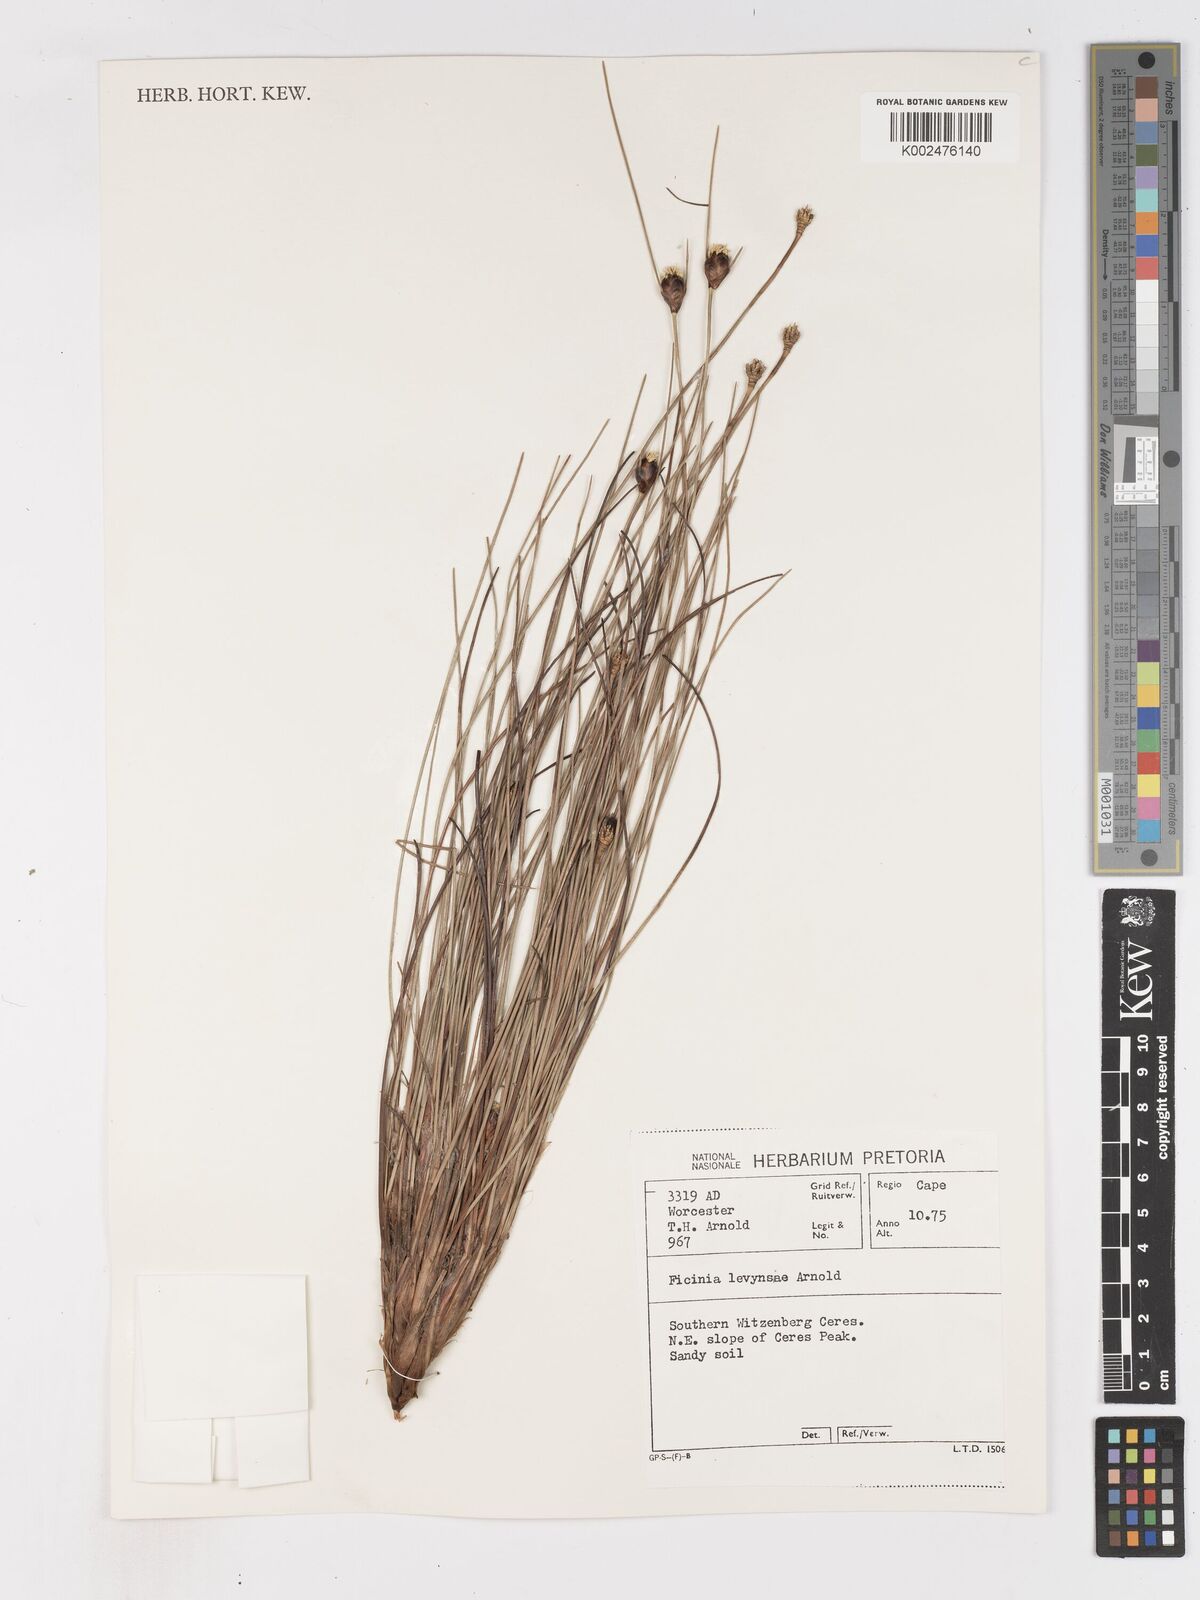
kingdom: Plantae
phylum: Tracheophyta
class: Liliopsida
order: Poales
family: Cyperaceae
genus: Ficinia
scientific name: Ficinia levynsiae
